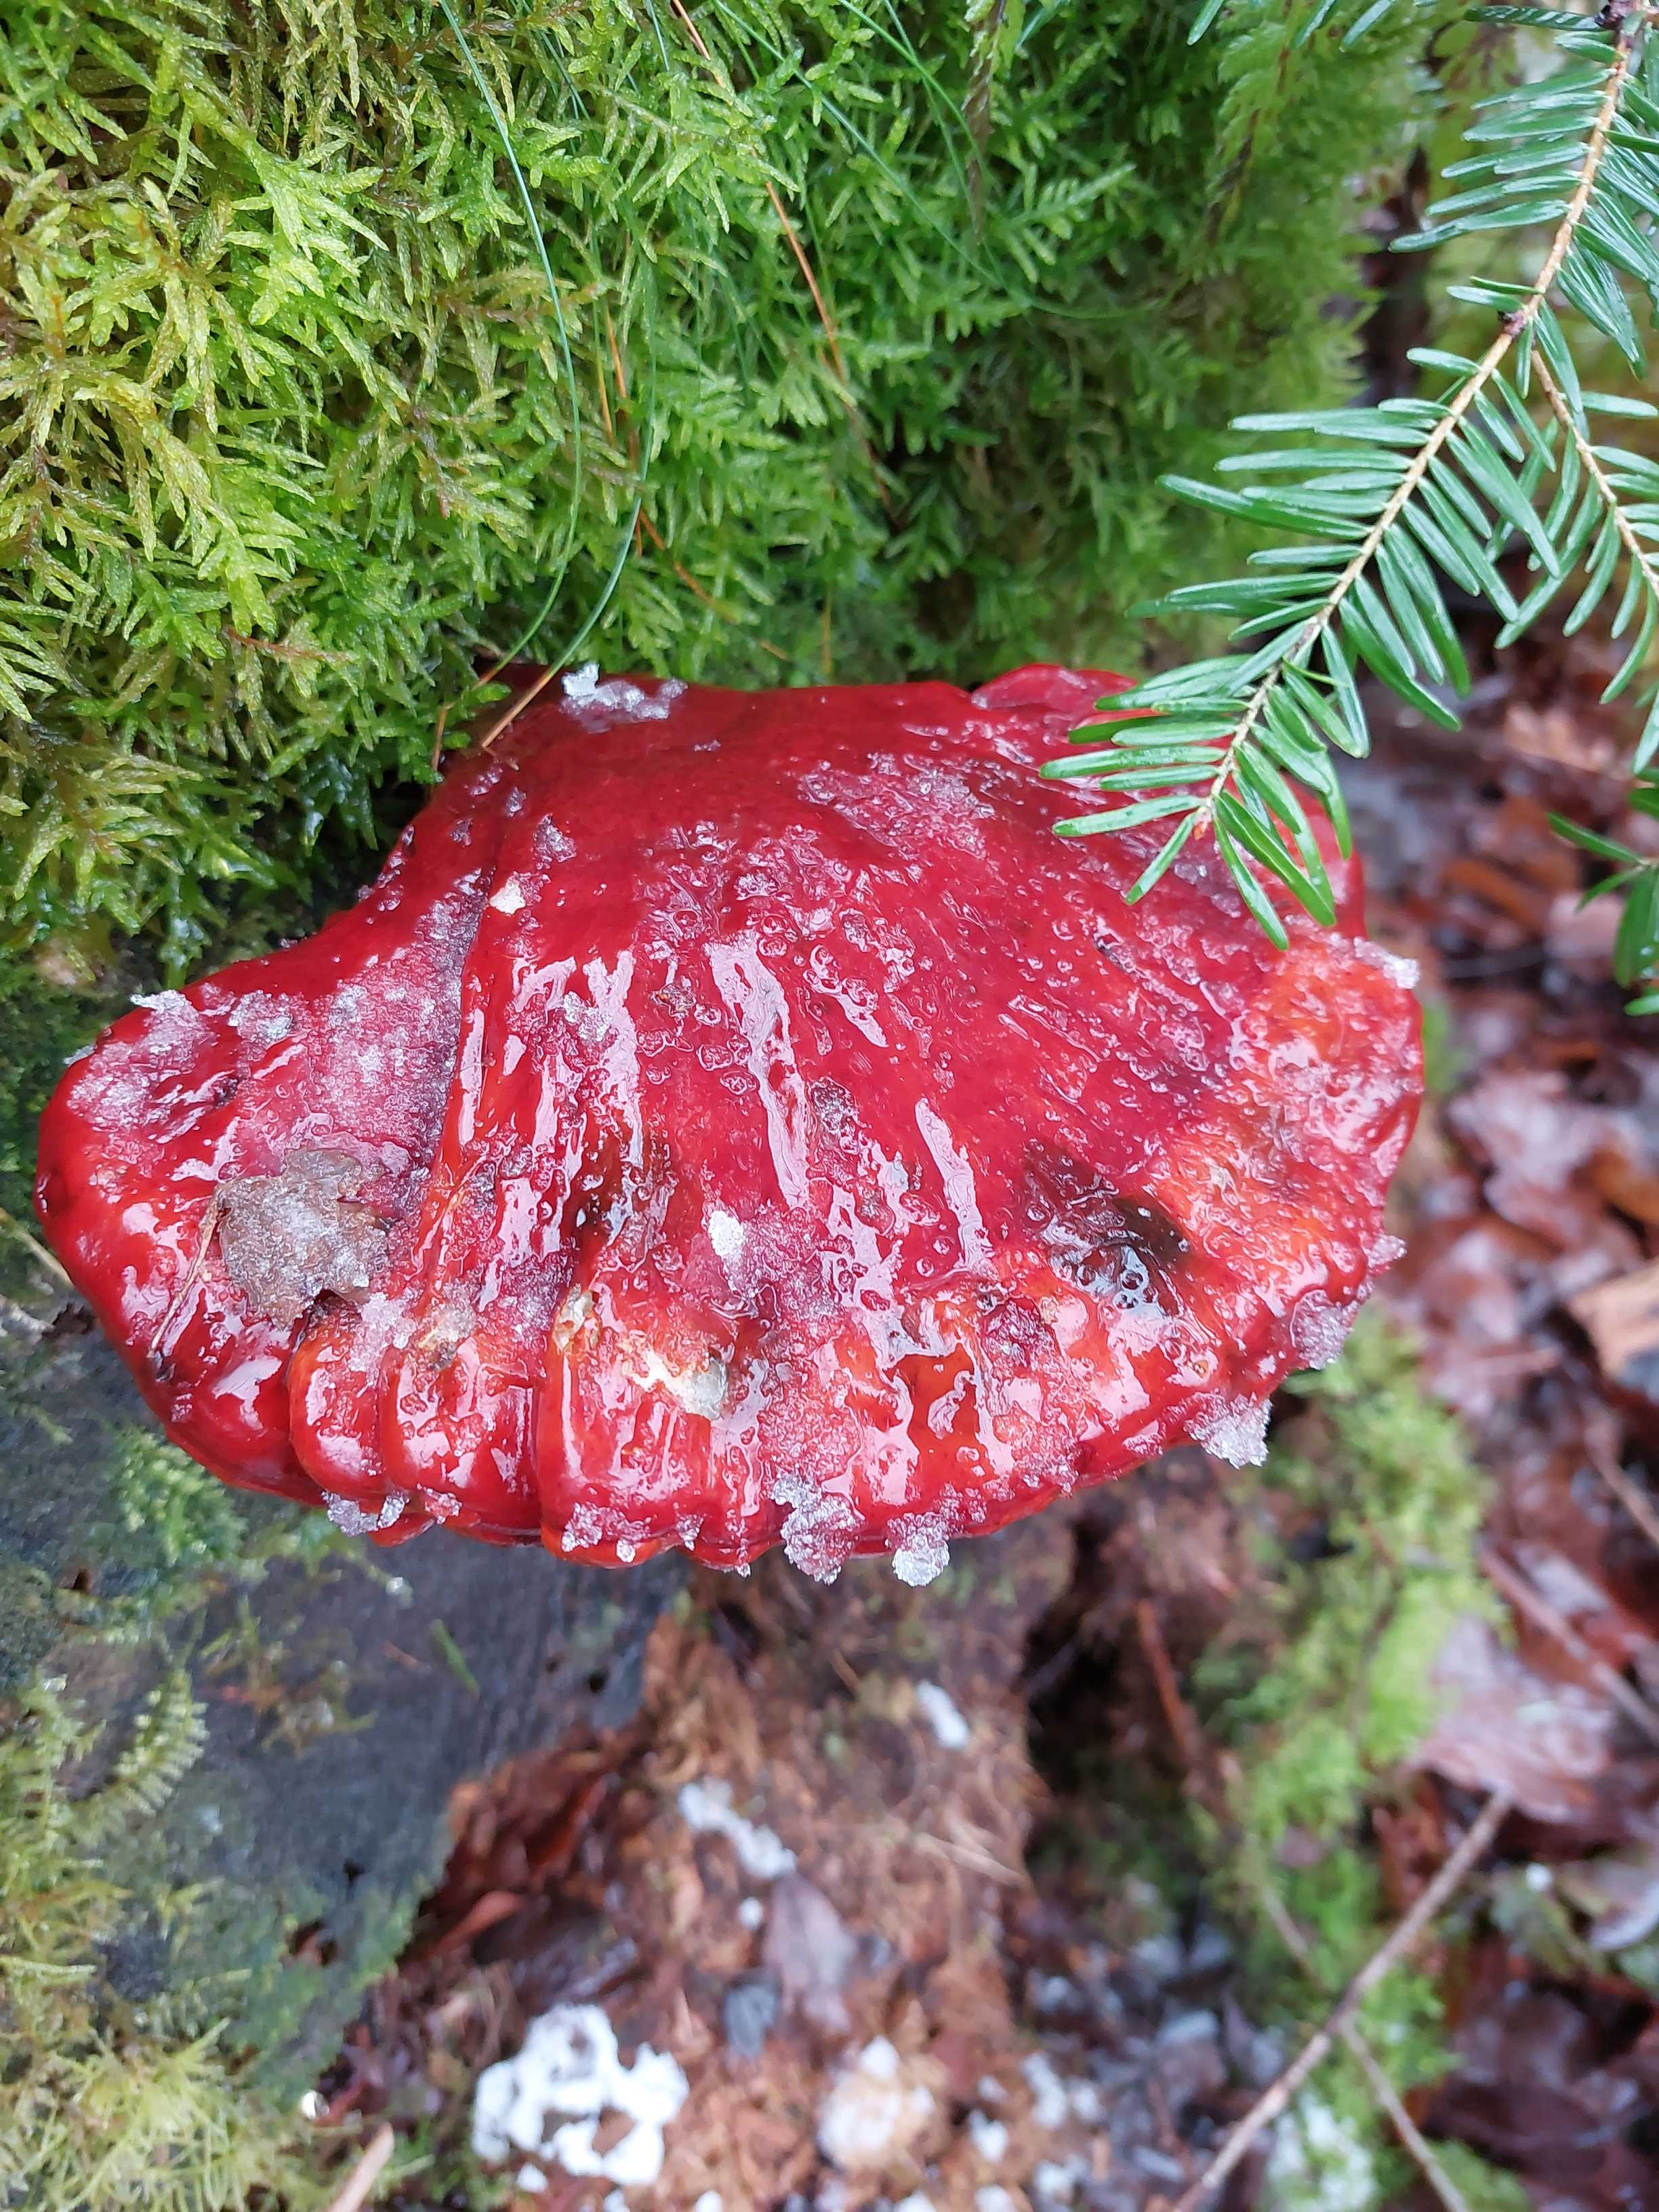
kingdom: Fungi
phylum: Basidiomycota
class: Agaricomycetes
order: Polyporales
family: Polyporaceae
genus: Ganoderma
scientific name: Ganoderma lucidum
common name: skinnende lakporesvamp
